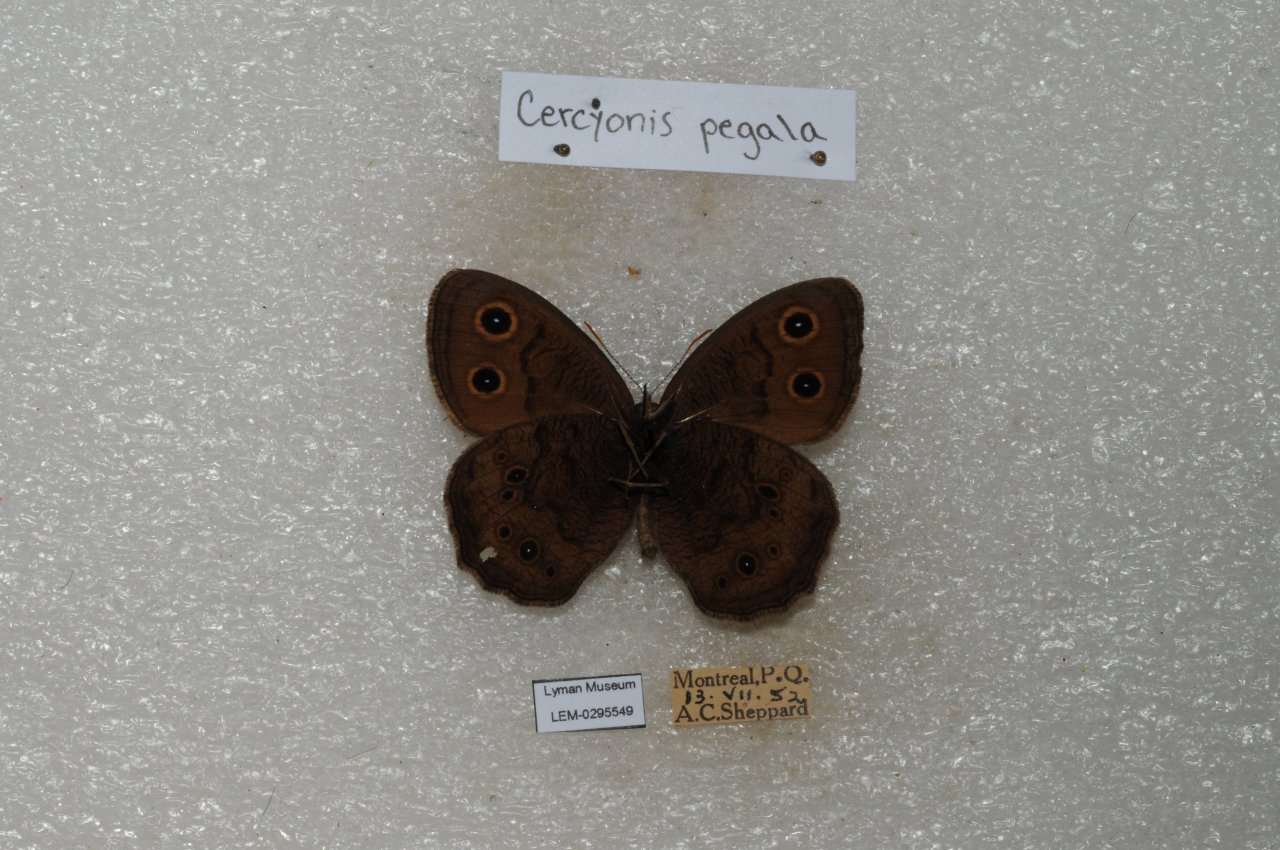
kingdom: Animalia
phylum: Arthropoda
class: Insecta
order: Lepidoptera
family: Nymphalidae
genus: Cercyonis
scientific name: Cercyonis pegala
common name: Common Wood-Nymph
